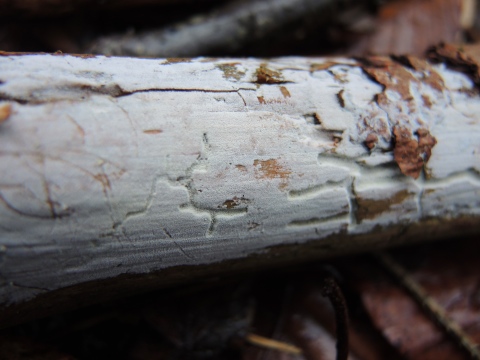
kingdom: Fungi
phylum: Basidiomycota
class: Agaricomycetes
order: Trechisporales
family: Hydnodontaceae
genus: Brevicellicium
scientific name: Brevicellicium olivascens
